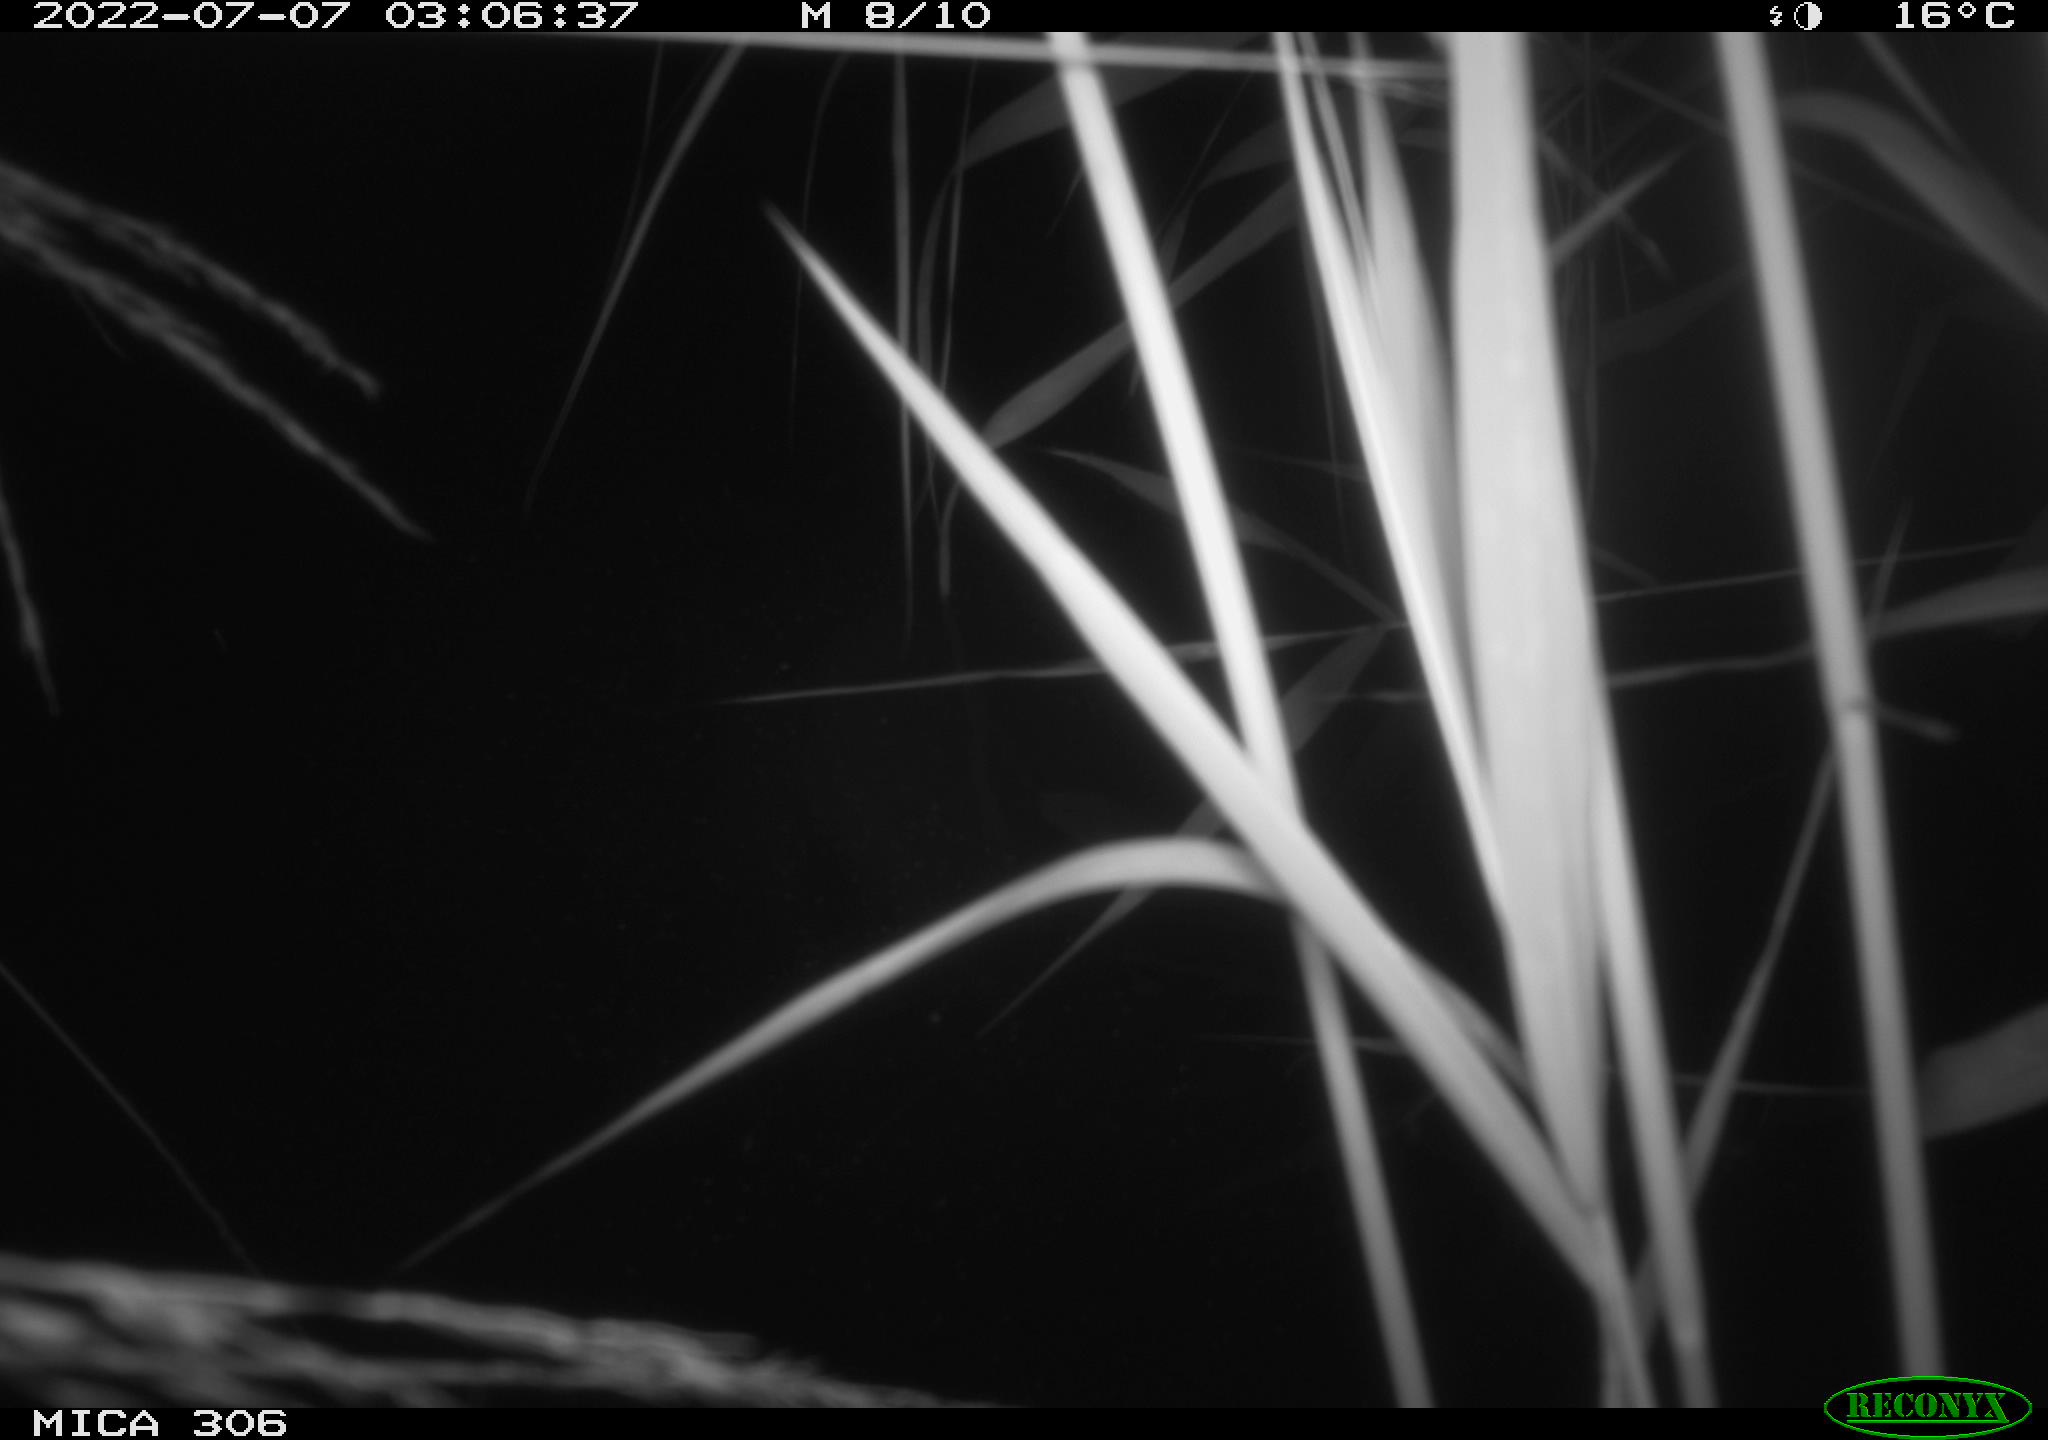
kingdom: Animalia
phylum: Chordata
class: Mammalia
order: Rodentia
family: Cricetidae
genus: Ondatra
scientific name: Ondatra zibethicus
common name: Muskrat
